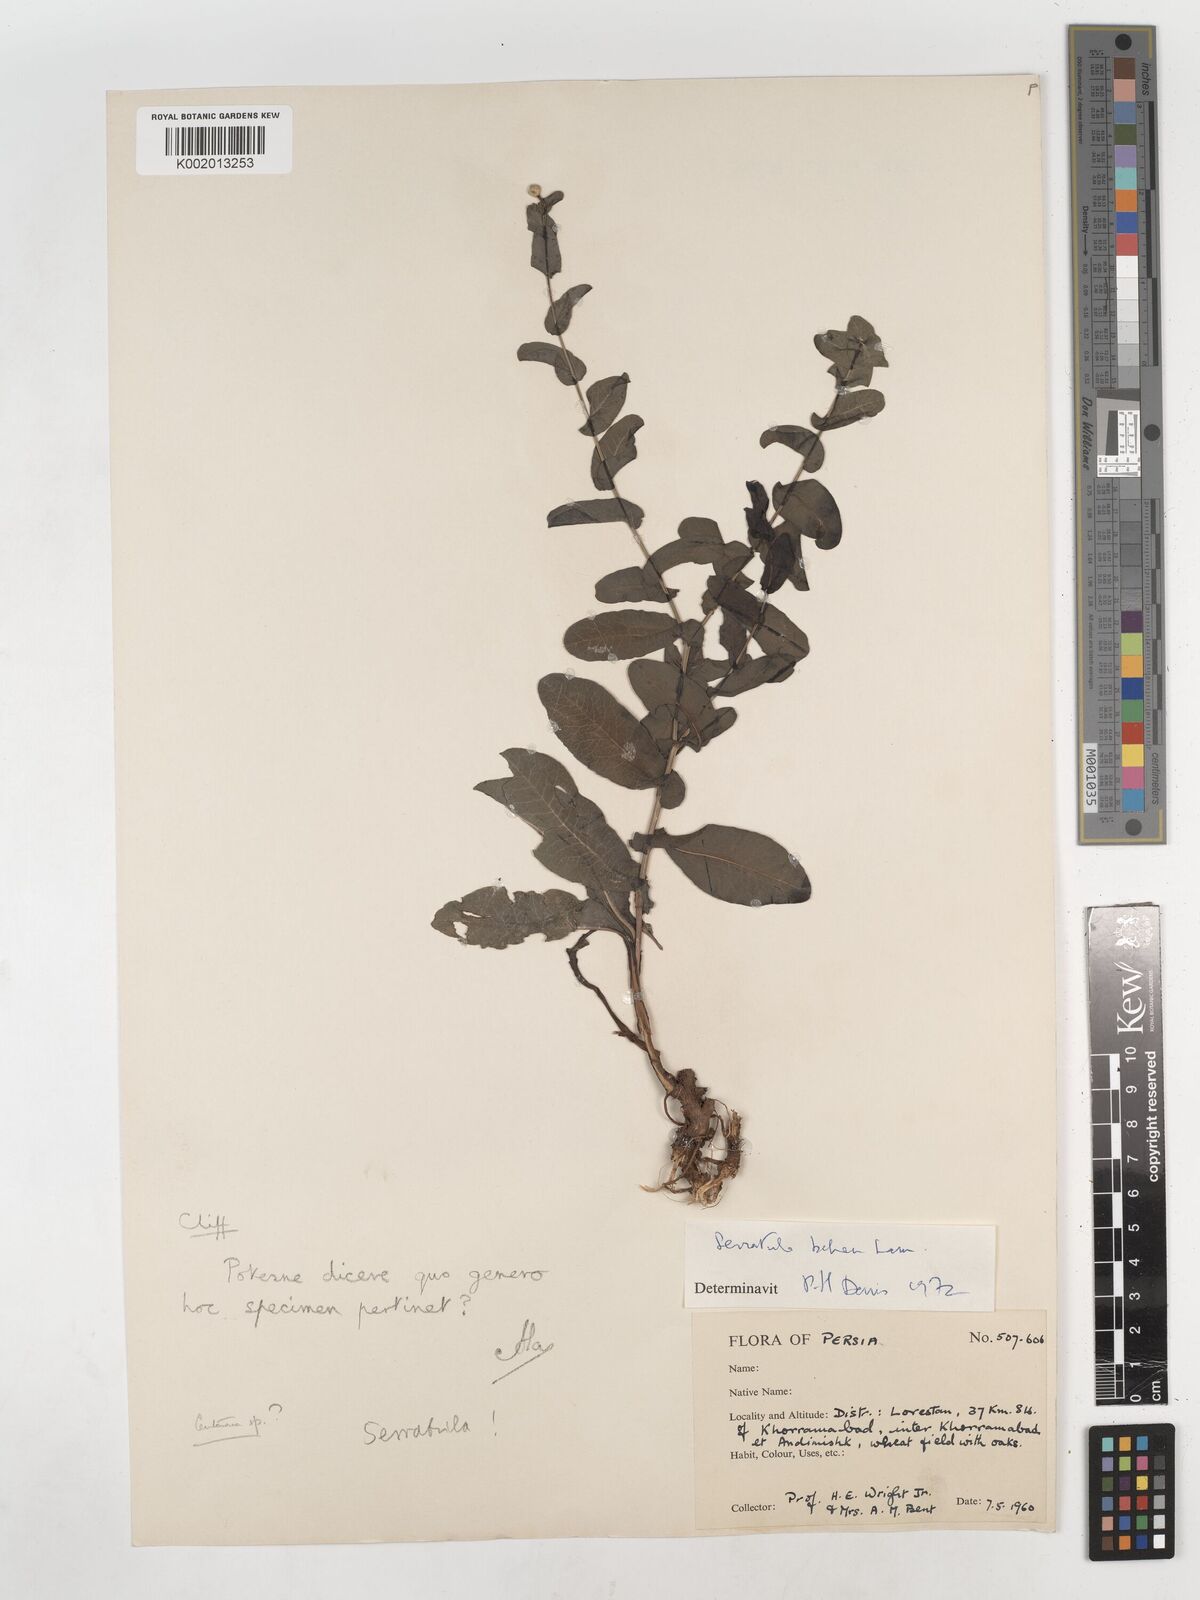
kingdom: Plantae
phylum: Tracheophyta
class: Magnoliopsida
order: Asterales
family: Asteraceae
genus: Klasea
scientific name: Klasea cerinthifolia
